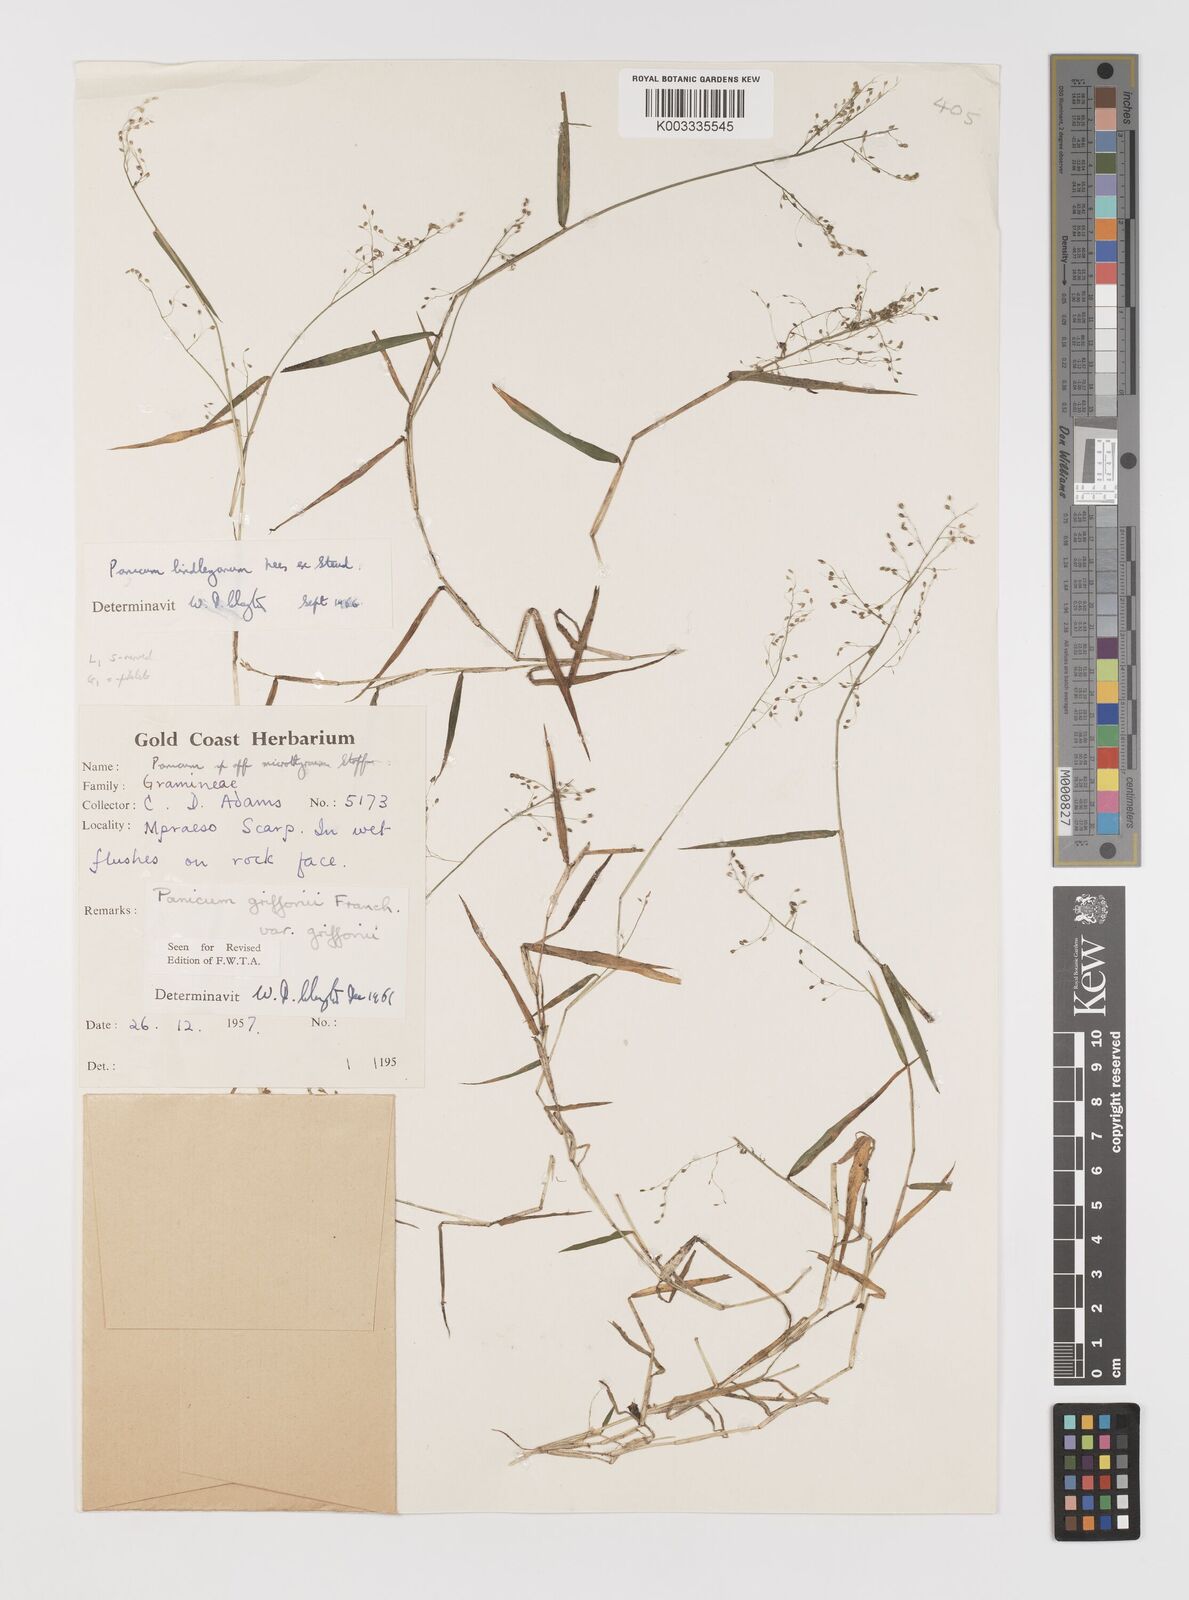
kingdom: Plantae
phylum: Tracheophyta
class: Liliopsida
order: Poales
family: Poaceae
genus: Trichanthecium
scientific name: Trichanthecium tenellum
